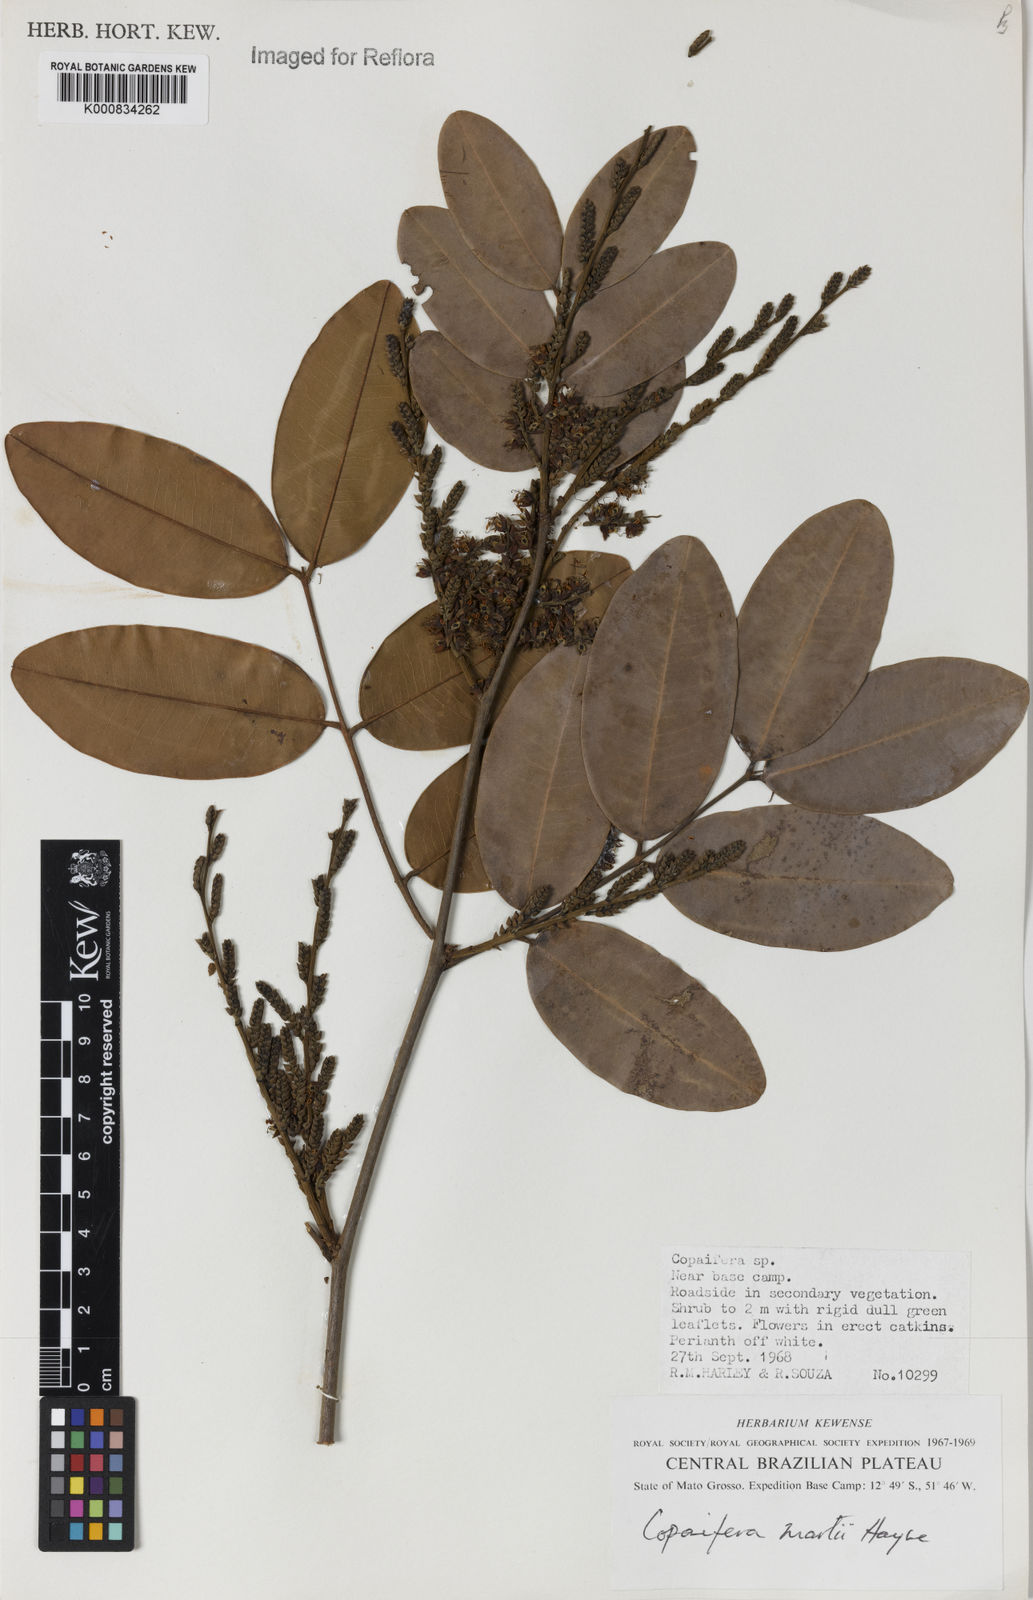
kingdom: Plantae
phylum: Tracheophyta
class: Magnoliopsida
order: Fabales
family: Fabaceae
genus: Copaifera
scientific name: Copaifera martii
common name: Copaiba
